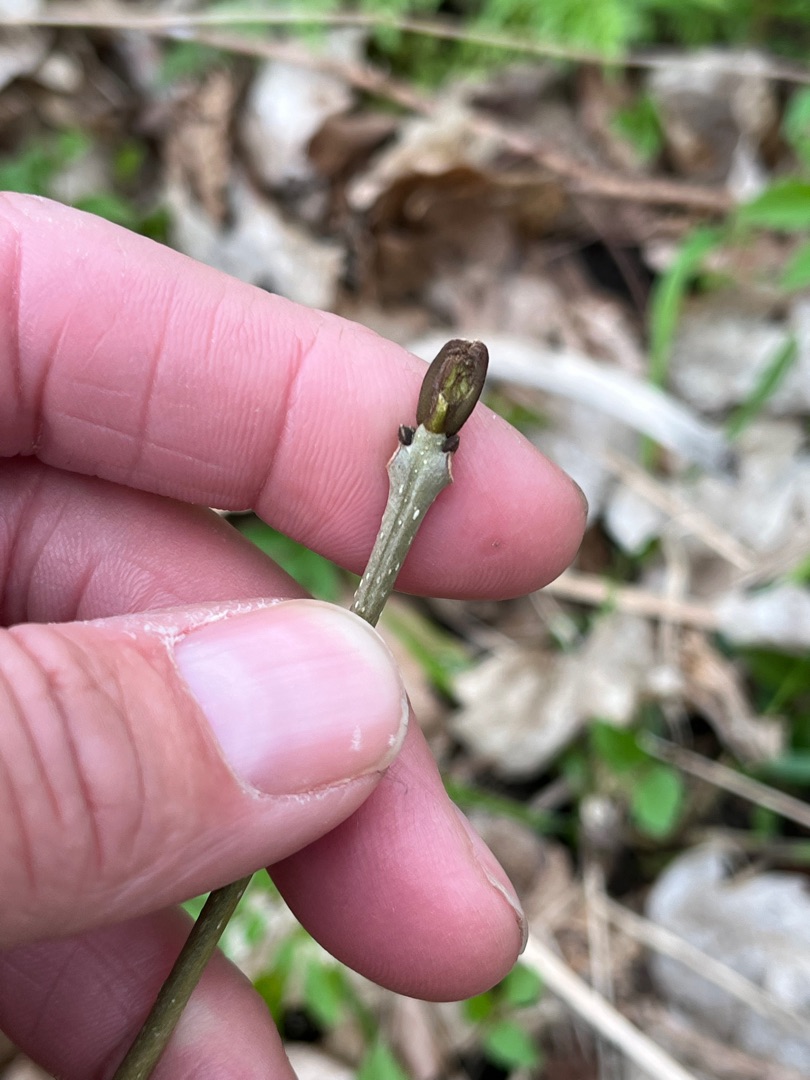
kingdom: Plantae
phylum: Tracheophyta
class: Magnoliopsida
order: Lamiales
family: Oleaceae
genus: Fraxinus
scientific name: Fraxinus excelsior
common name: Ask
